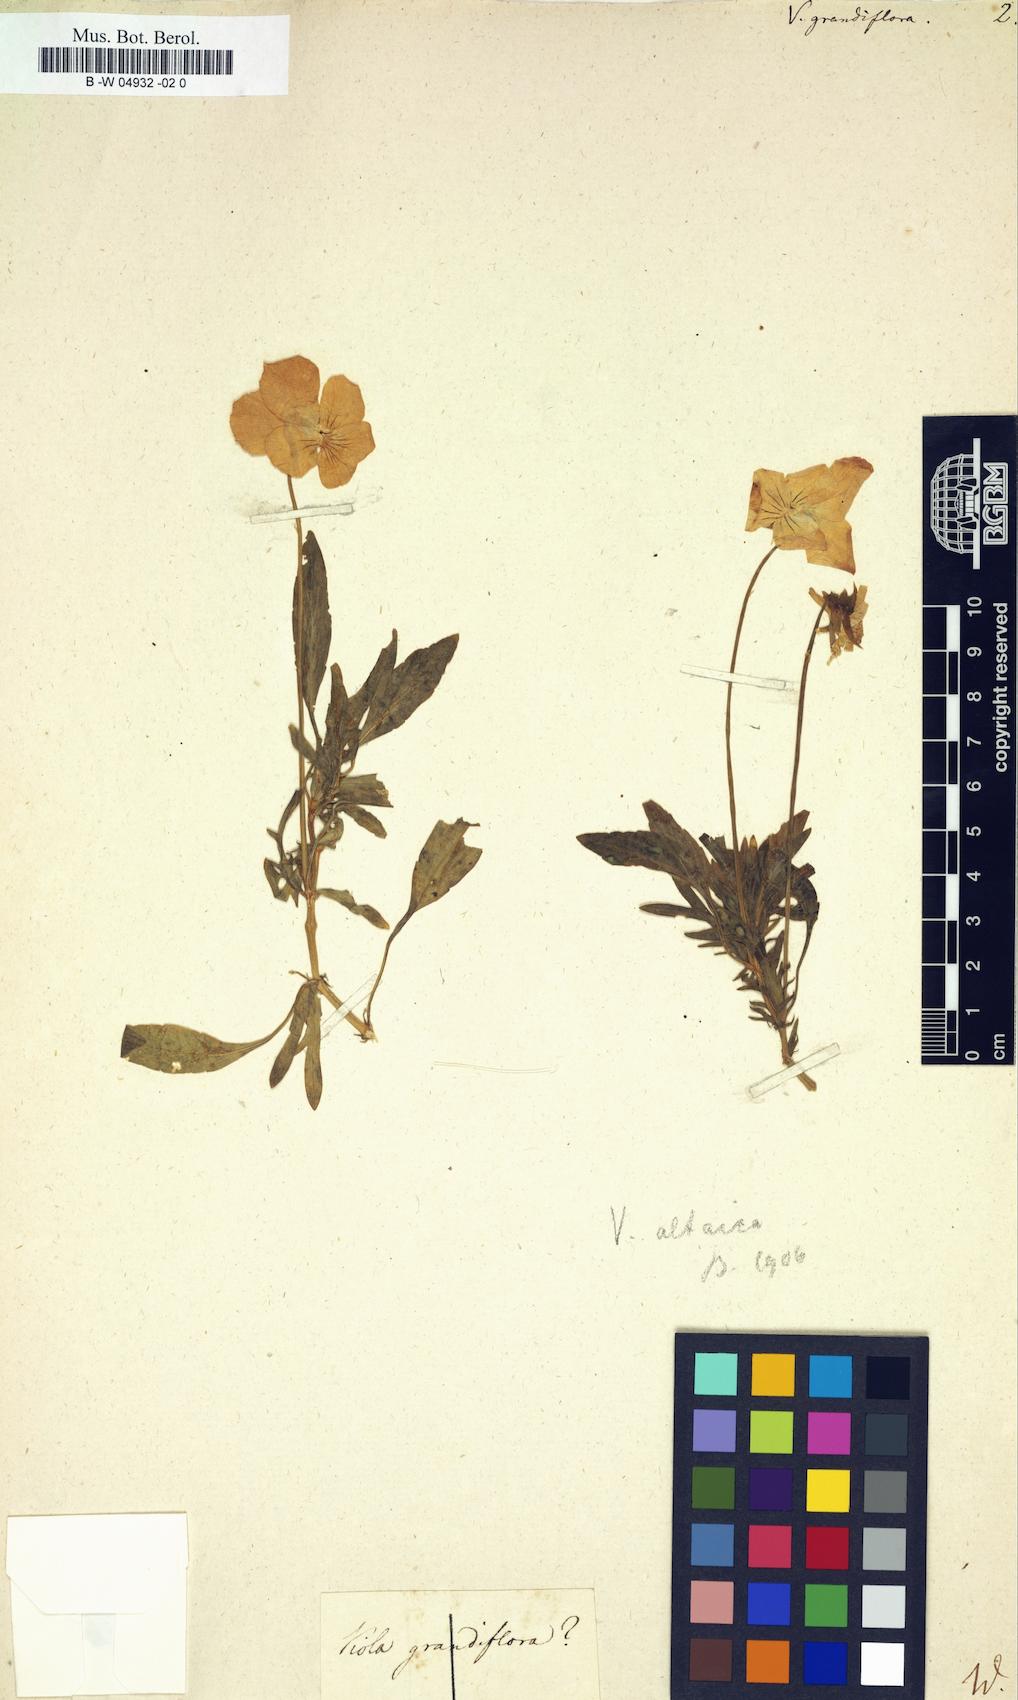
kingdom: Plantae
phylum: Tracheophyta
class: Magnoliopsida
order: Malpighiales
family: Violaceae
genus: Viola
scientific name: Viola lutea
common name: Mountain pansy
